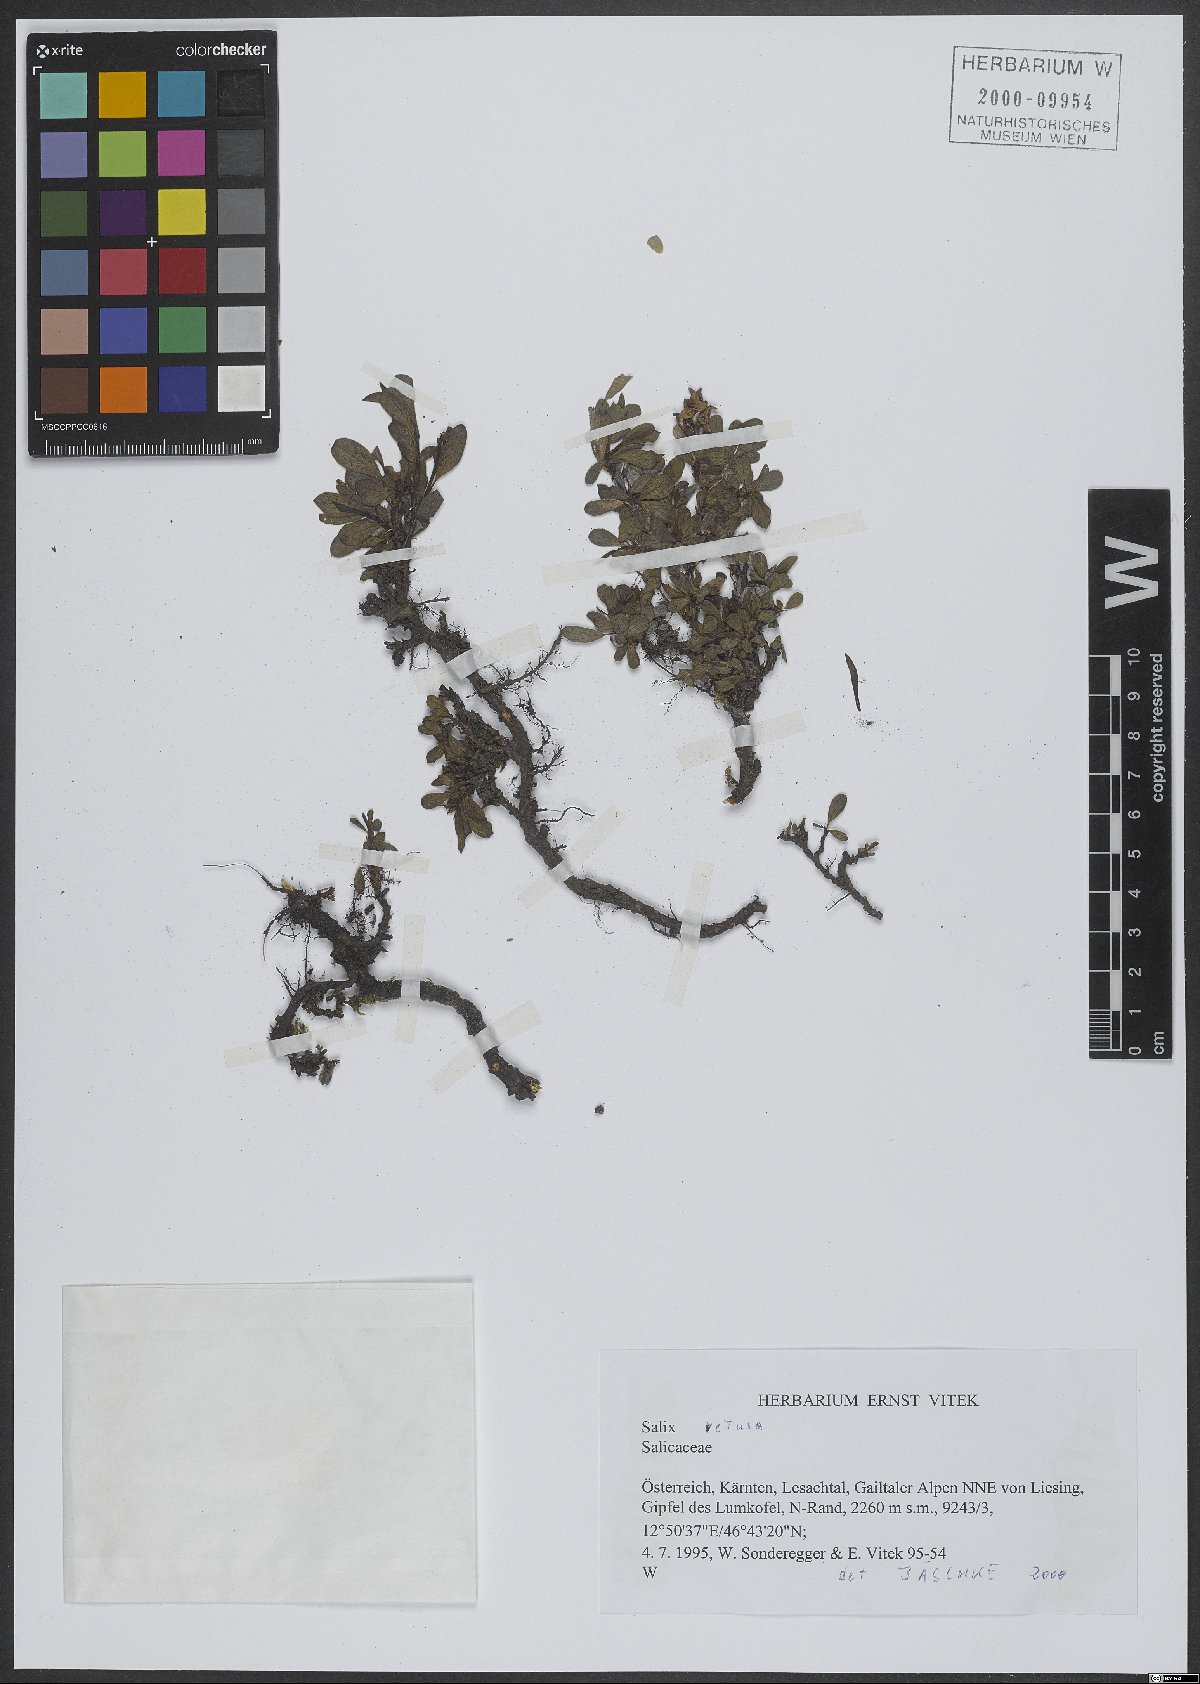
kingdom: Plantae
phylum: Tracheophyta
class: Magnoliopsida
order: Malpighiales
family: Salicaceae
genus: Salix
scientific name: Salix retusa
